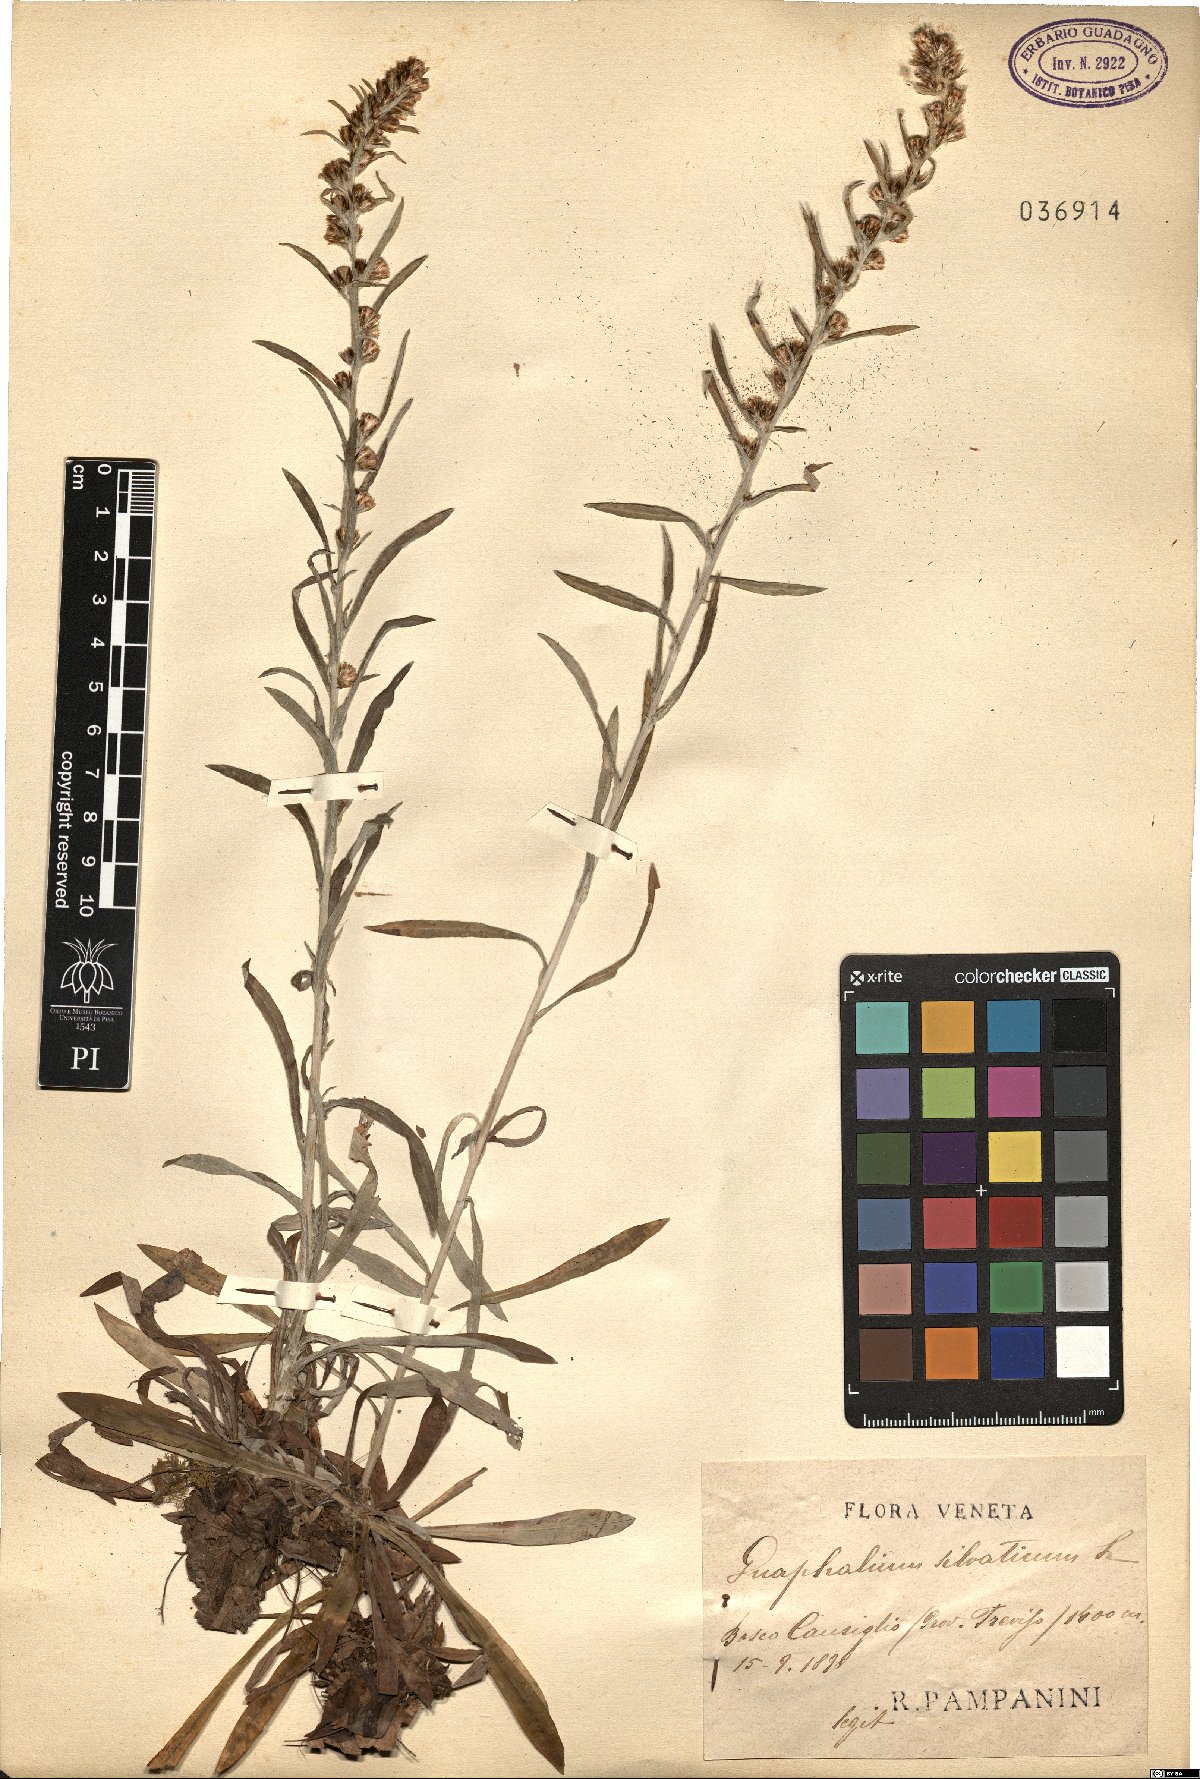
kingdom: Plantae
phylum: Tracheophyta
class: Magnoliopsida
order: Asterales
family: Asteraceae
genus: Omalotheca
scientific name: Omalotheca sylvatica
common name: Heath cudweed
